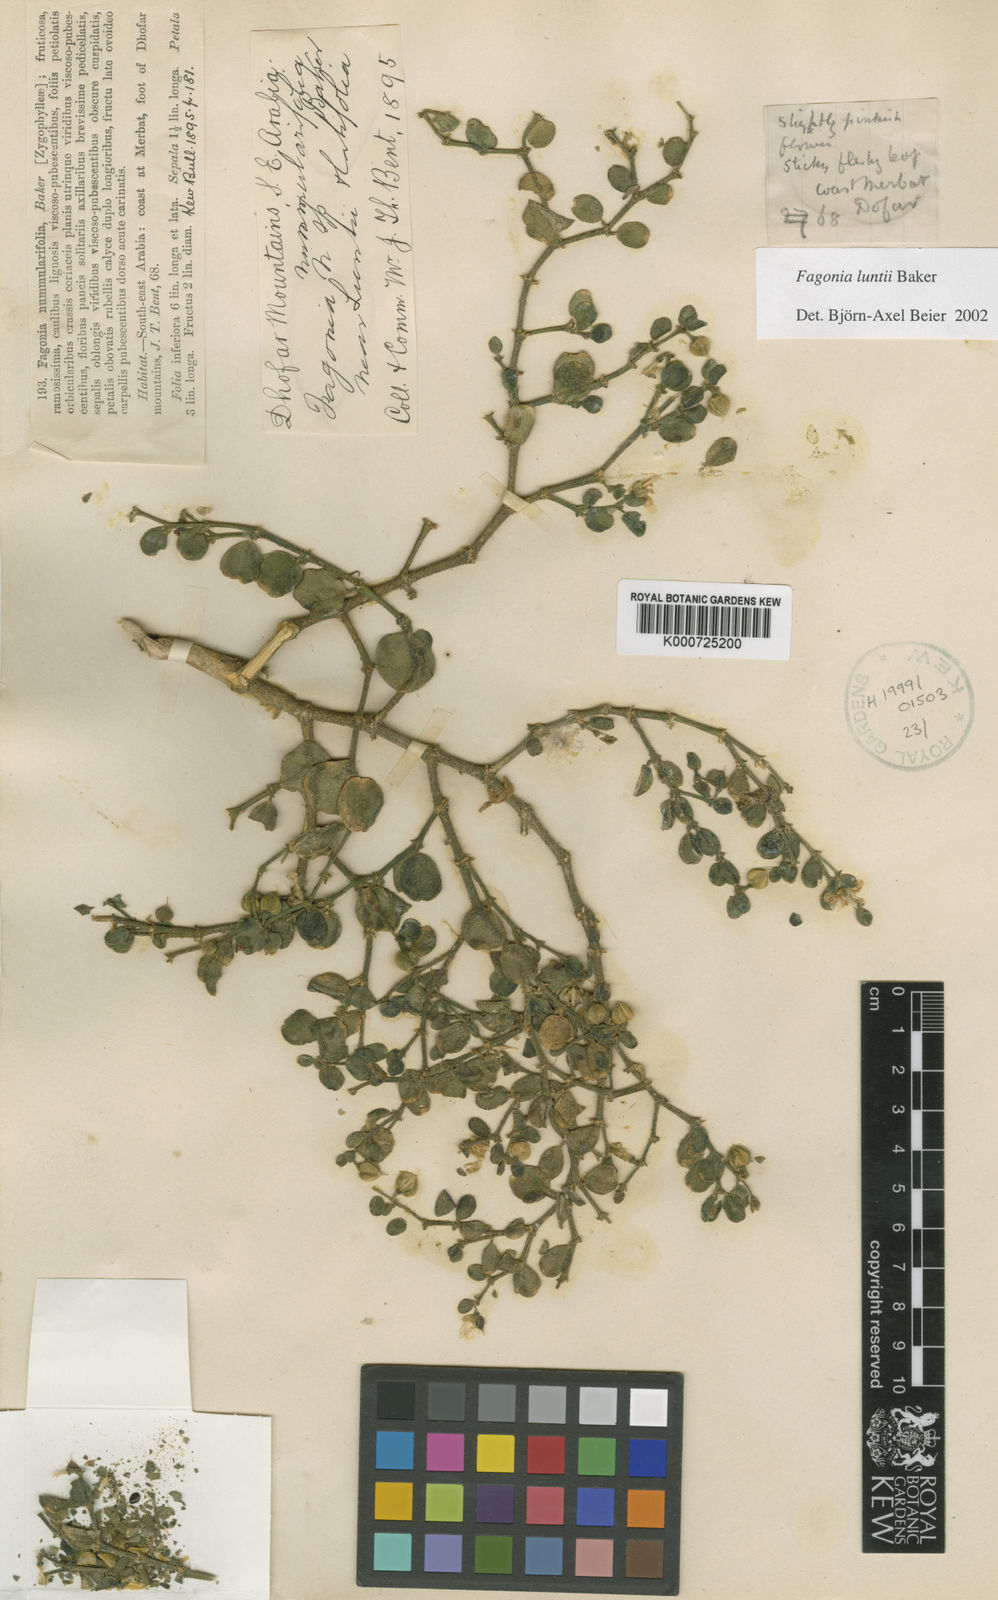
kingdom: Plantae
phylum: Tracheophyta
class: Magnoliopsida
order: Zygophyllales
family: Zygophyllaceae
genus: Fagonia
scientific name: Fagonia socotrana
